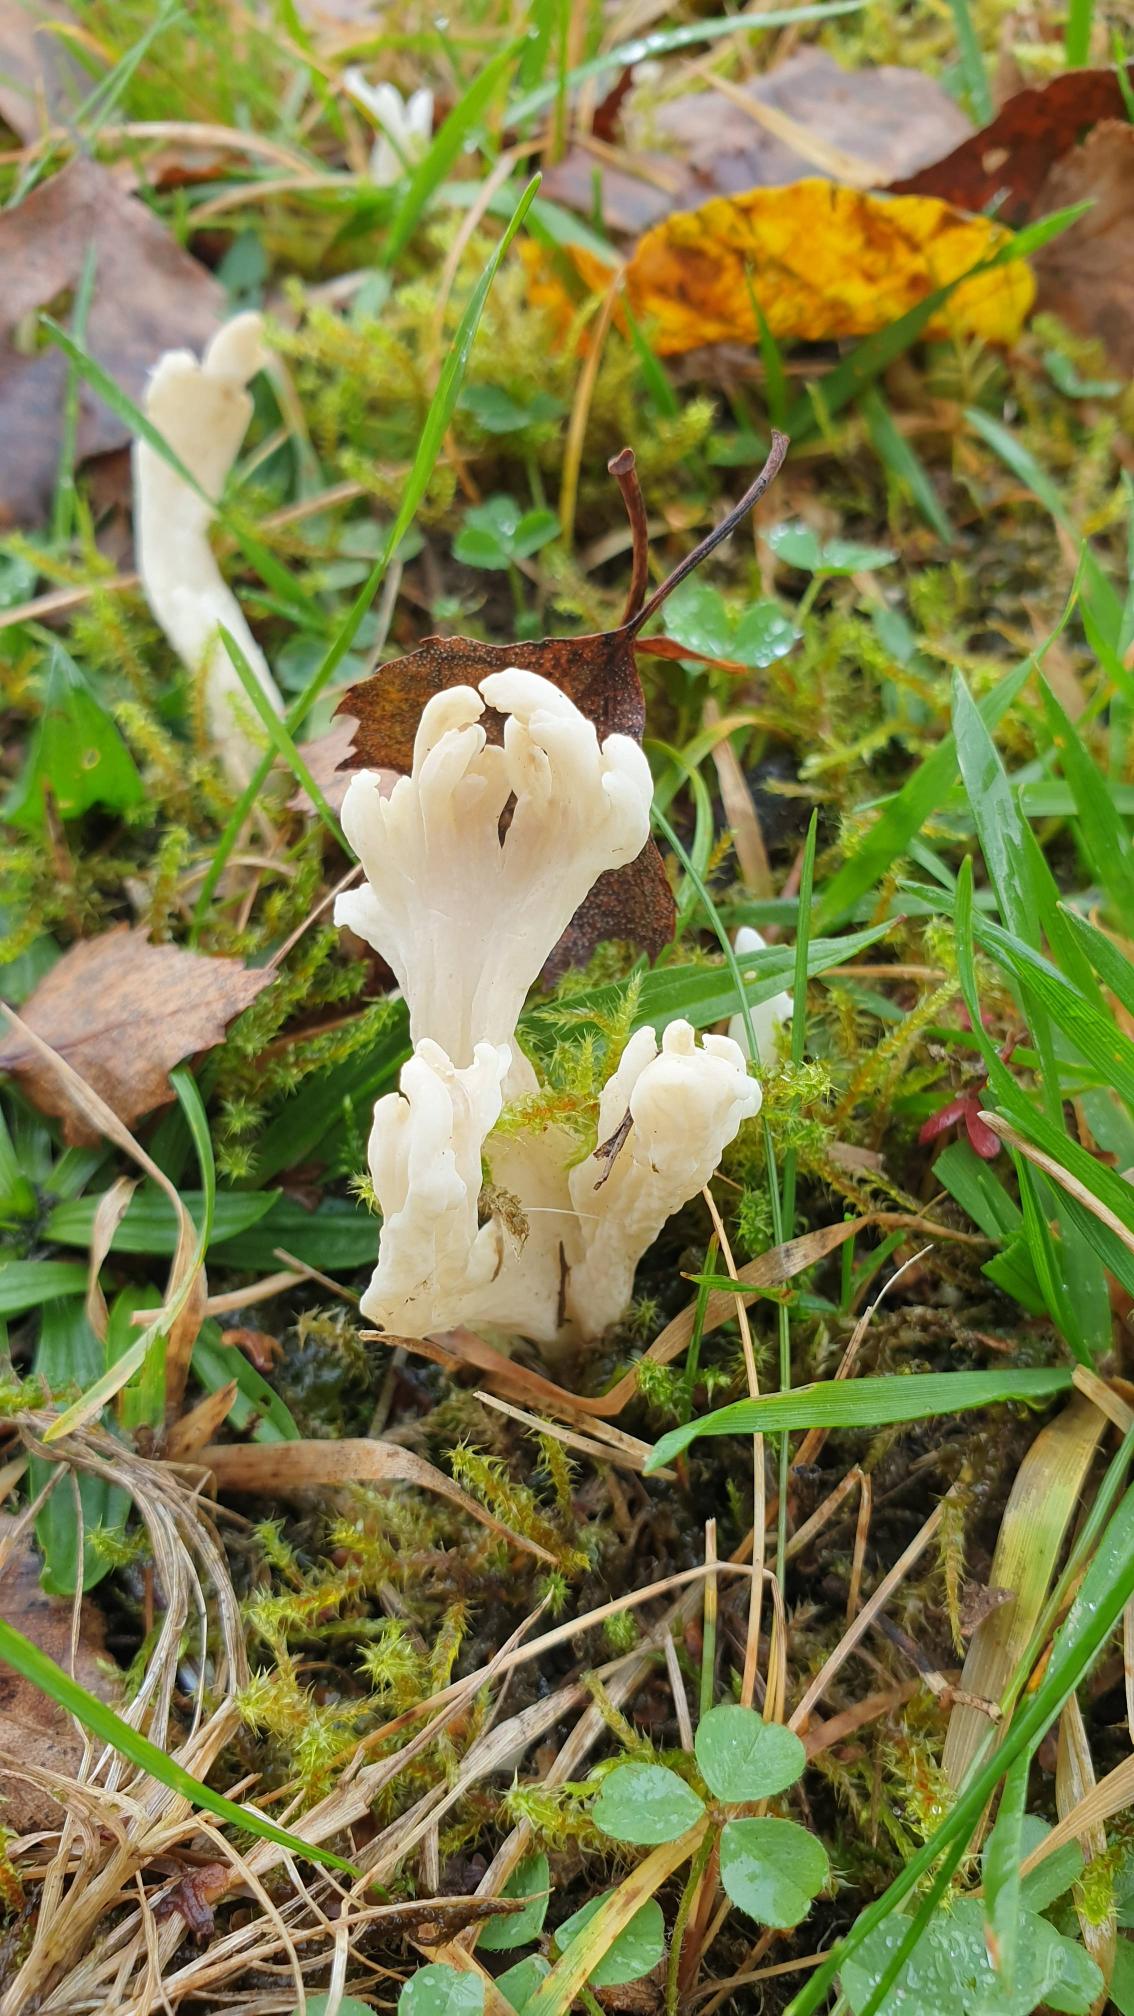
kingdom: Fungi
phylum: Basidiomycota
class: Agaricomycetes
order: Cantharellales
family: Hydnaceae
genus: Clavulina
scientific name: Clavulina rugosa
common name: Rynket troldkølle
